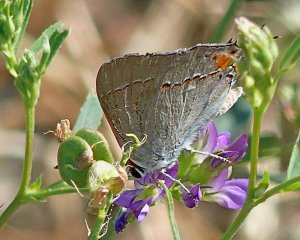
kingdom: Animalia
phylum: Arthropoda
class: Insecta
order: Lepidoptera
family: Lycaenidae
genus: Strymon
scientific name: Strymon melinus
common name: Gray Hairstreak
